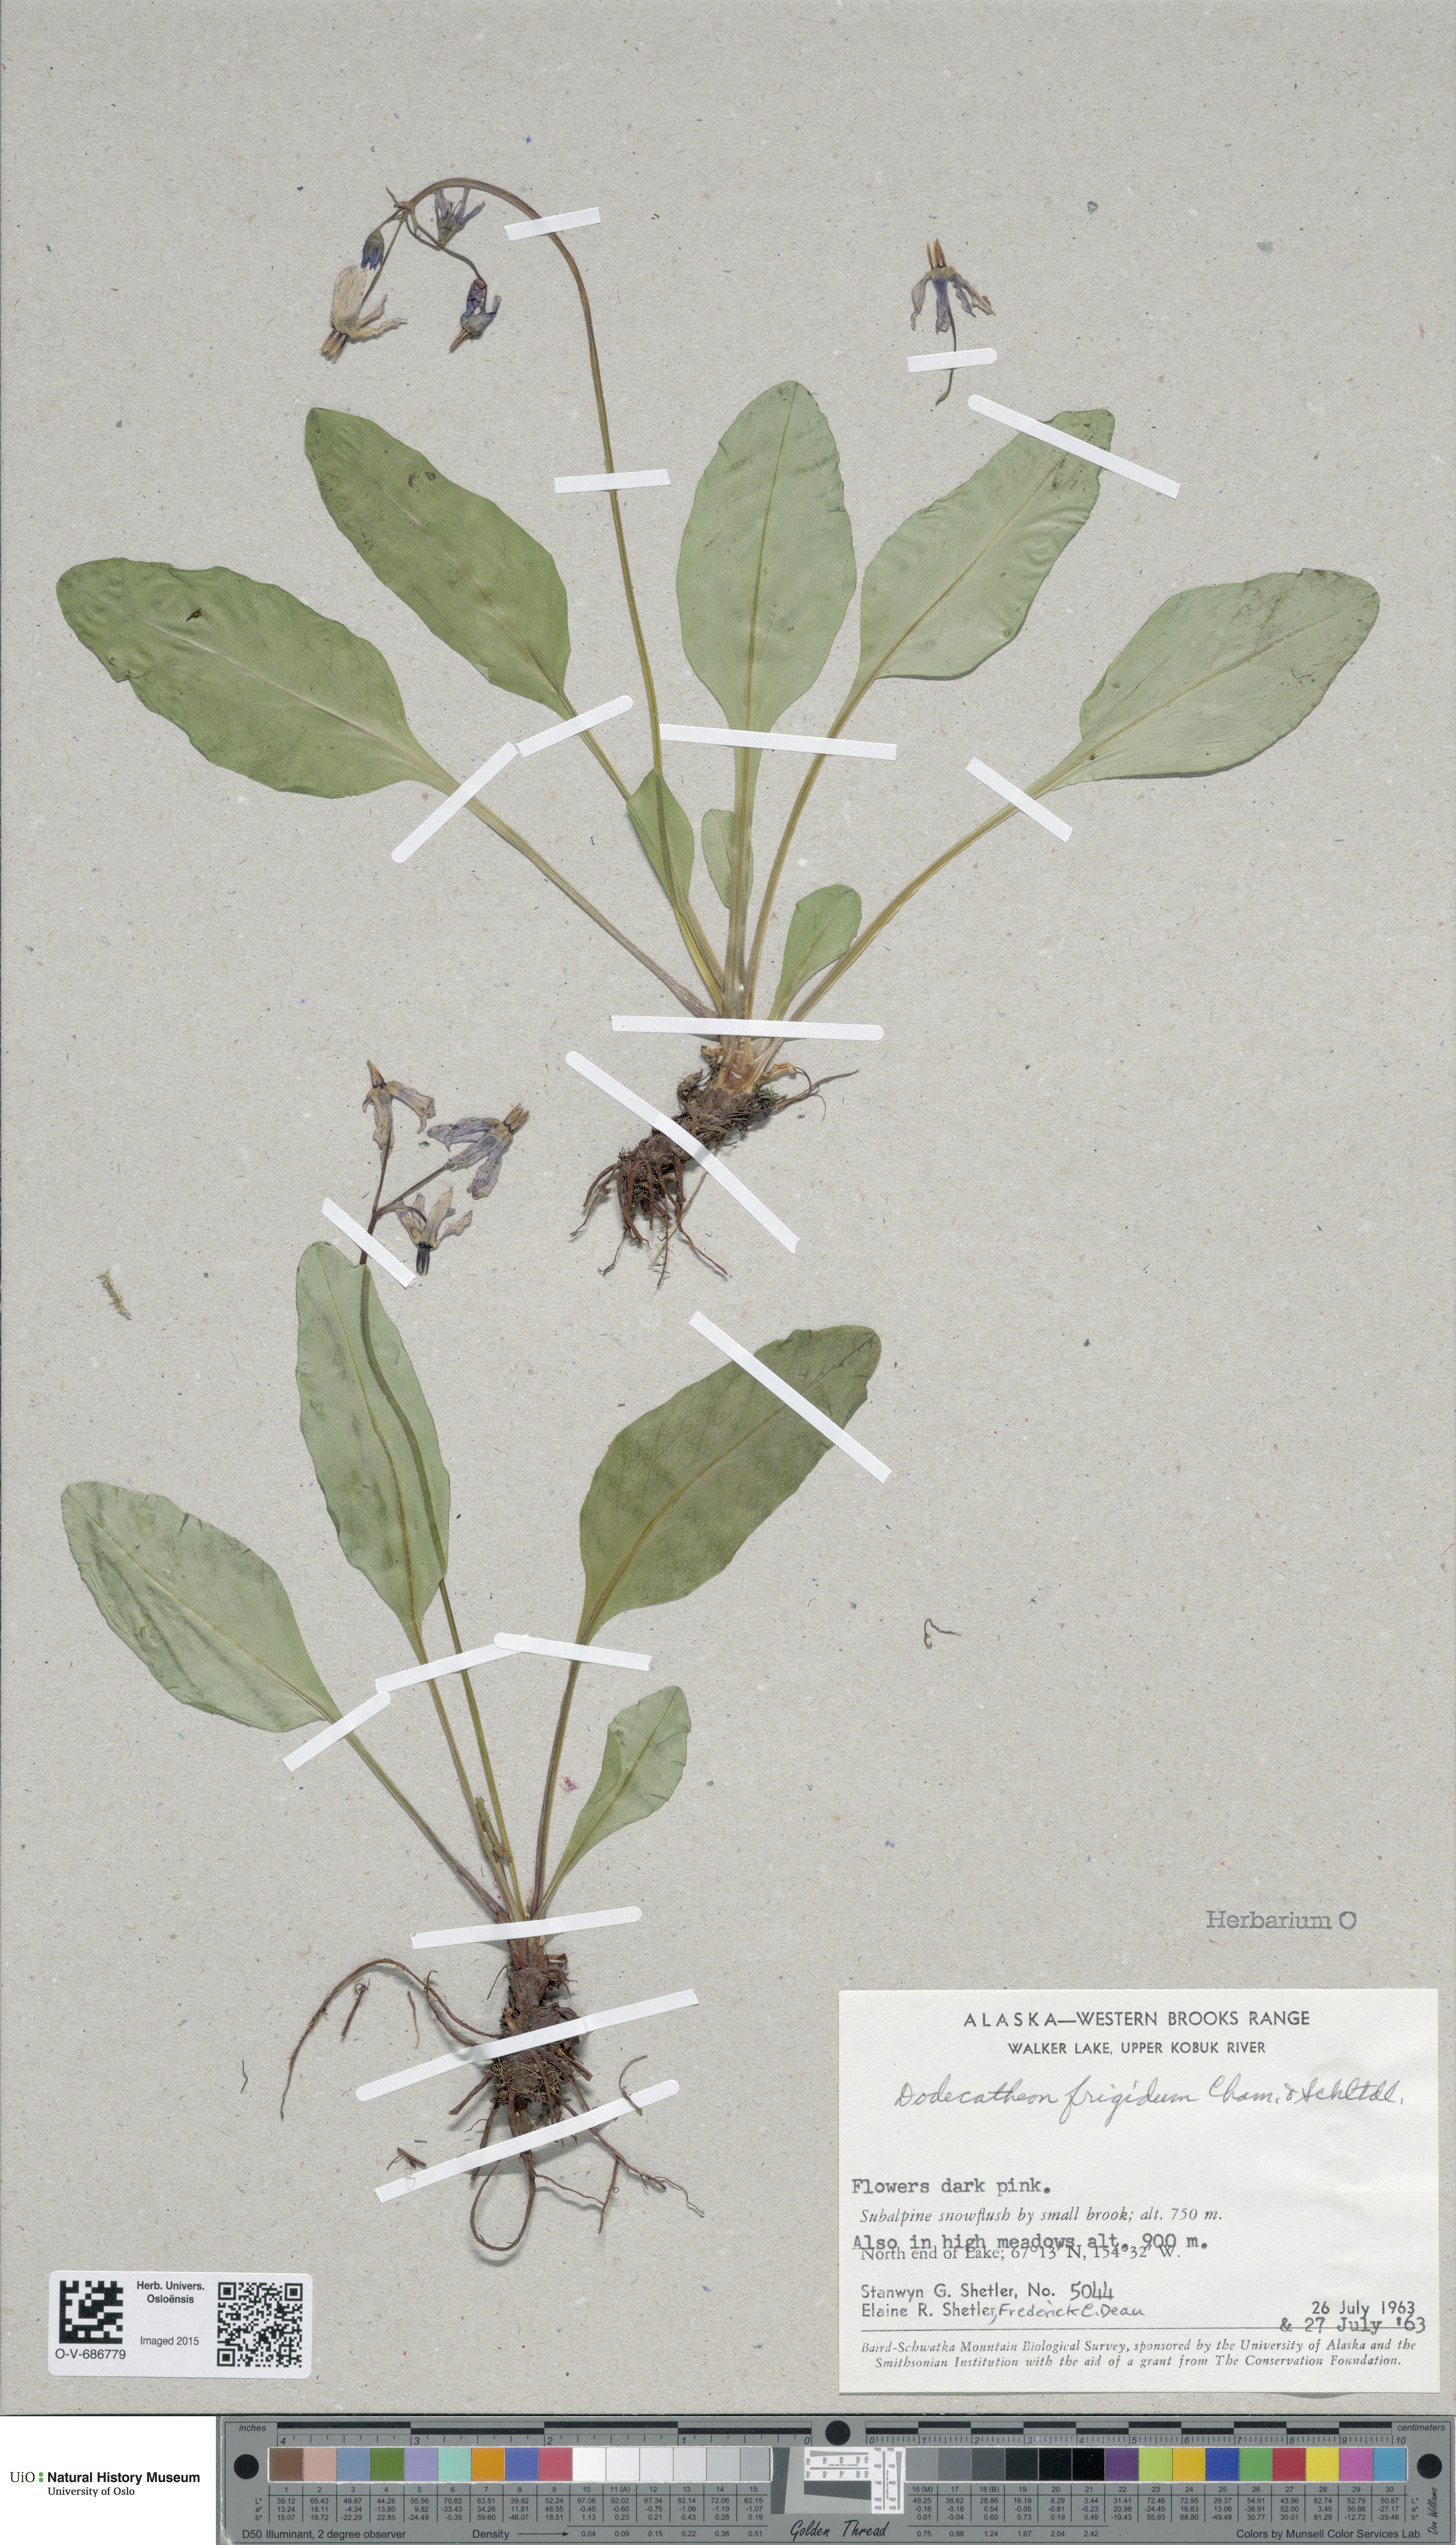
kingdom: Plantae
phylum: Tracheophyta
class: Magnoliopsida
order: Ericales
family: Primulaceae
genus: Dodecatheon
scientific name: Dodecatheon frigidum
